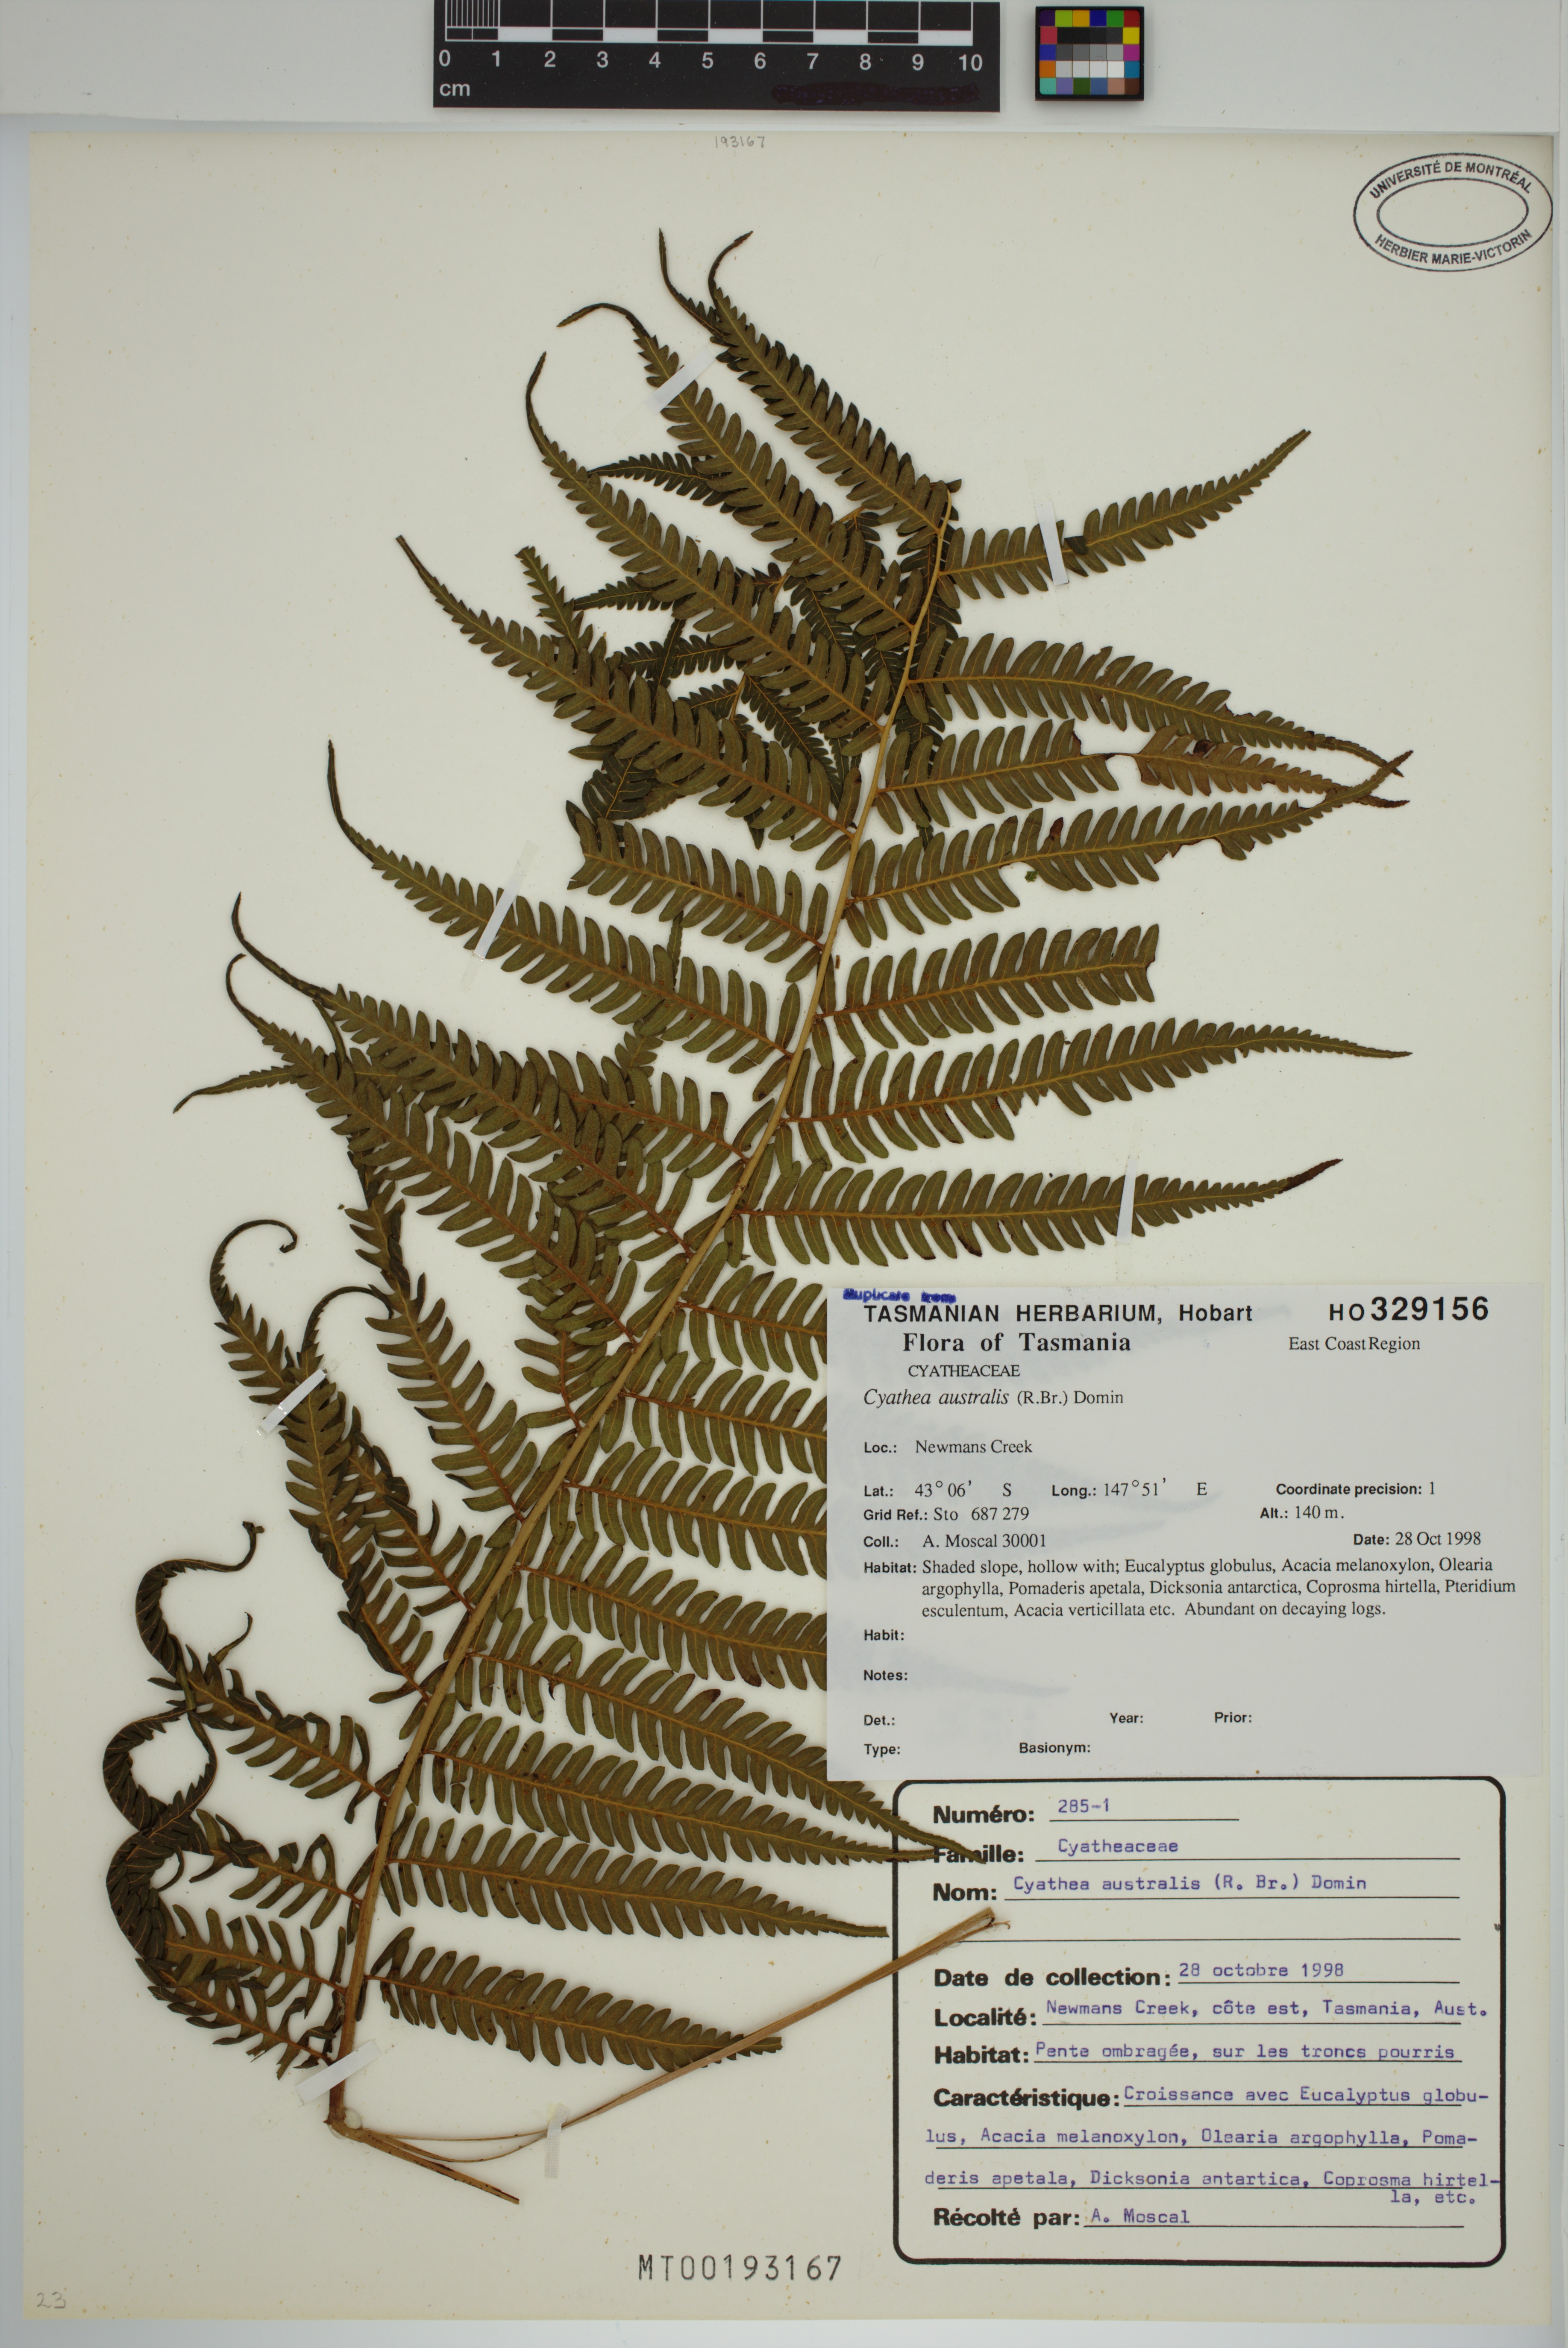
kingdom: Plantae
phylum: Tracheophyta
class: Polypodiopsida
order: Cyatheales
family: Cyatheaceae
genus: Alsophila
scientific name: Alsophila australis
